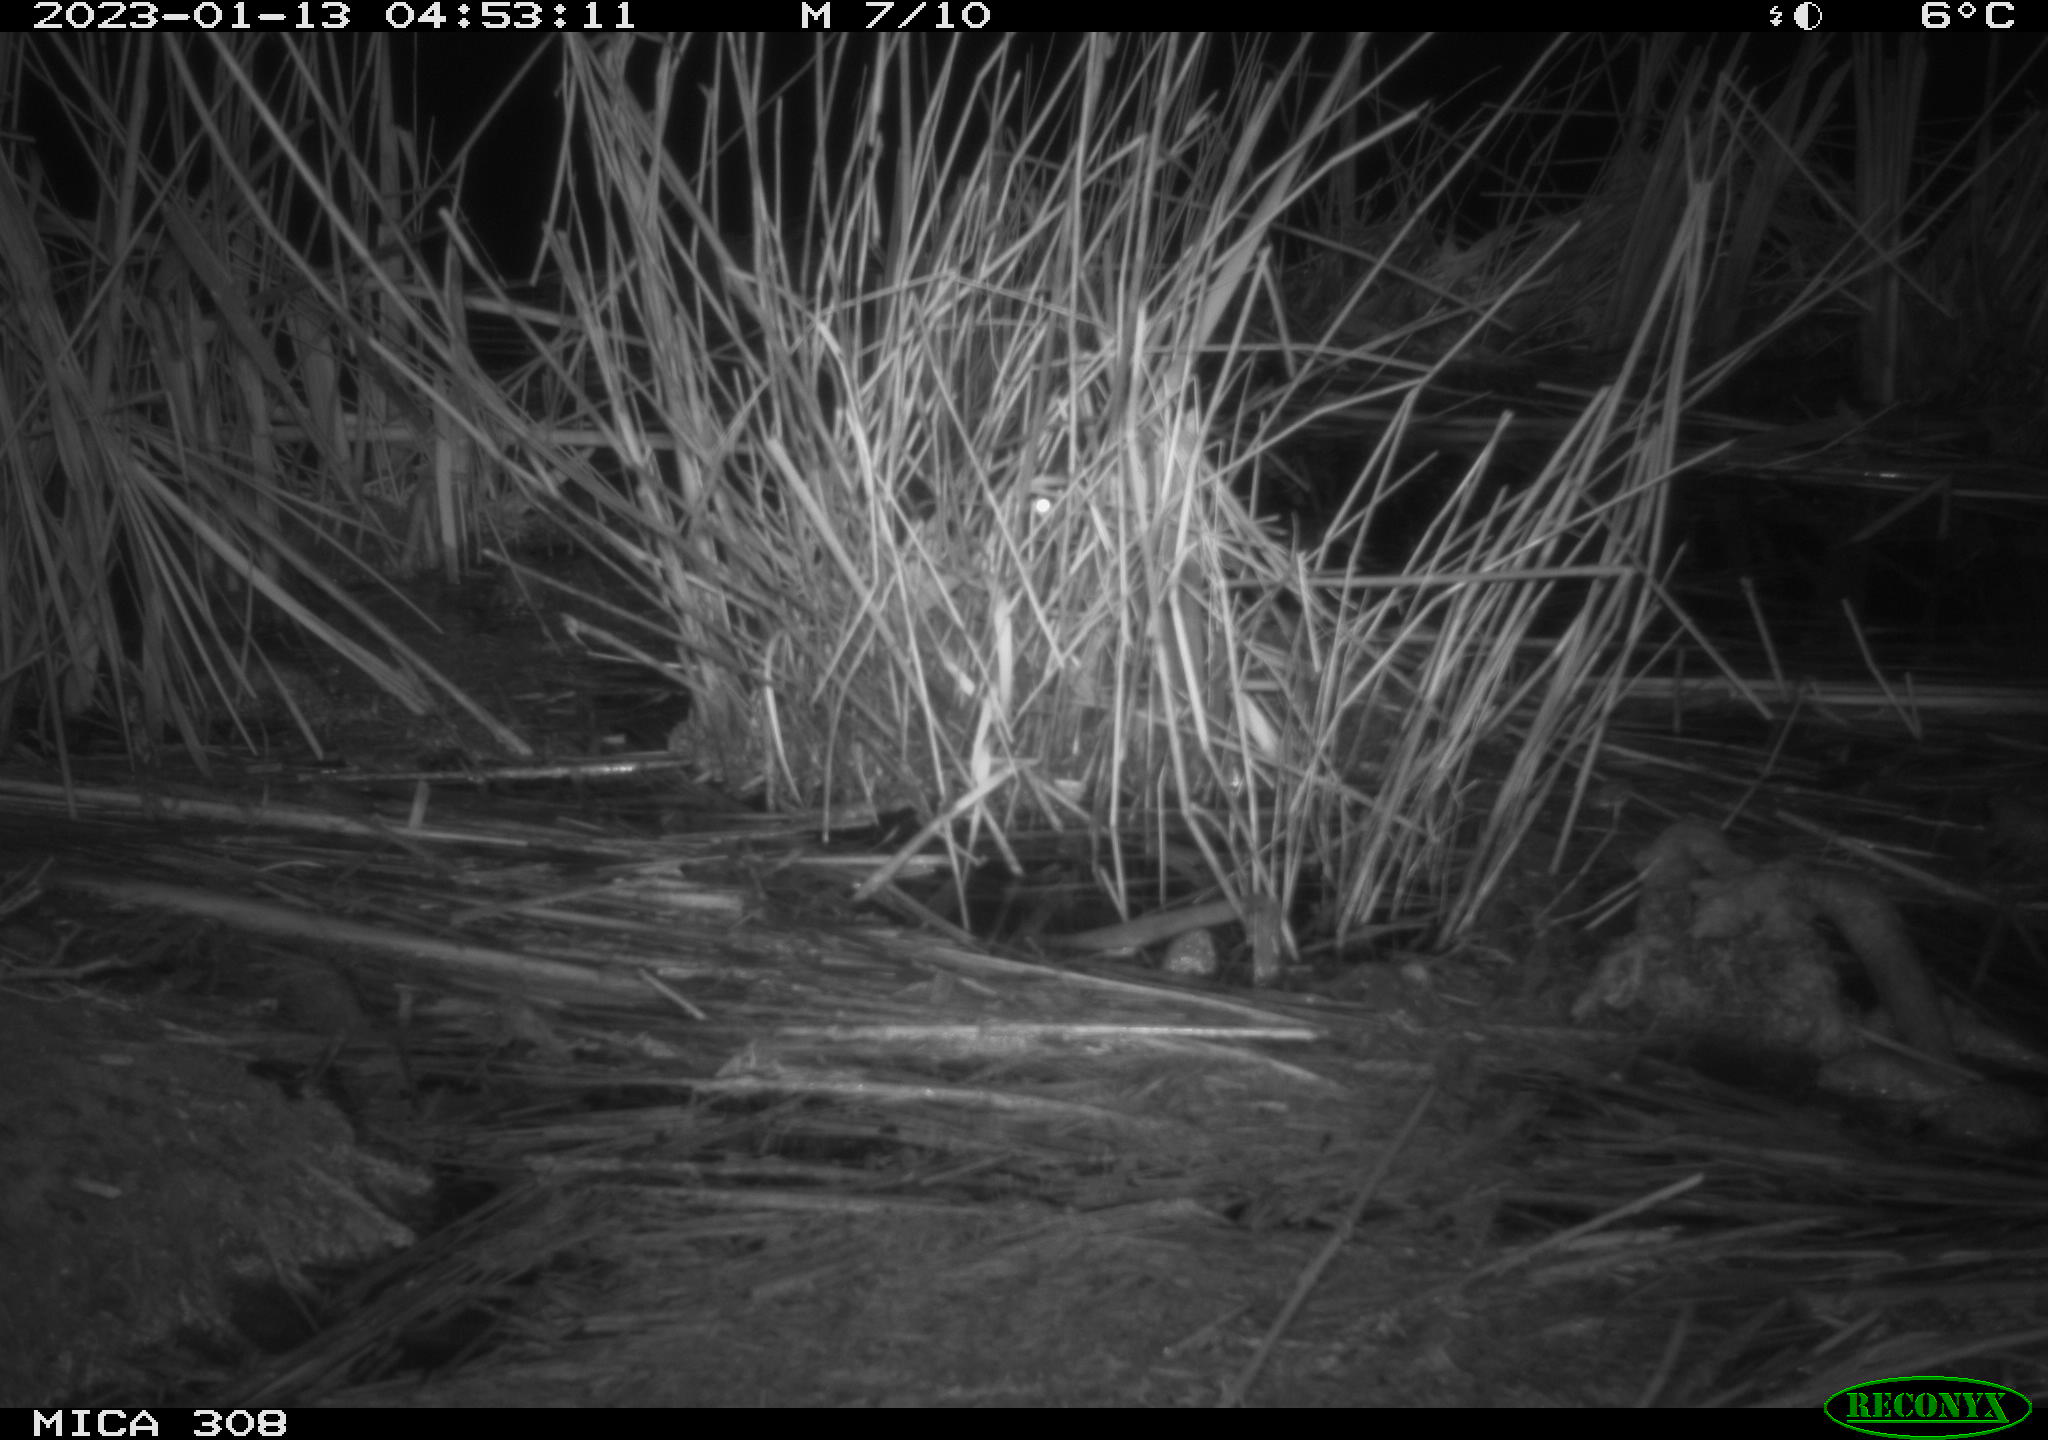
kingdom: Animalia
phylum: Chordata
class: Mammalia
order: Rodentia
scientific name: Rodentia
